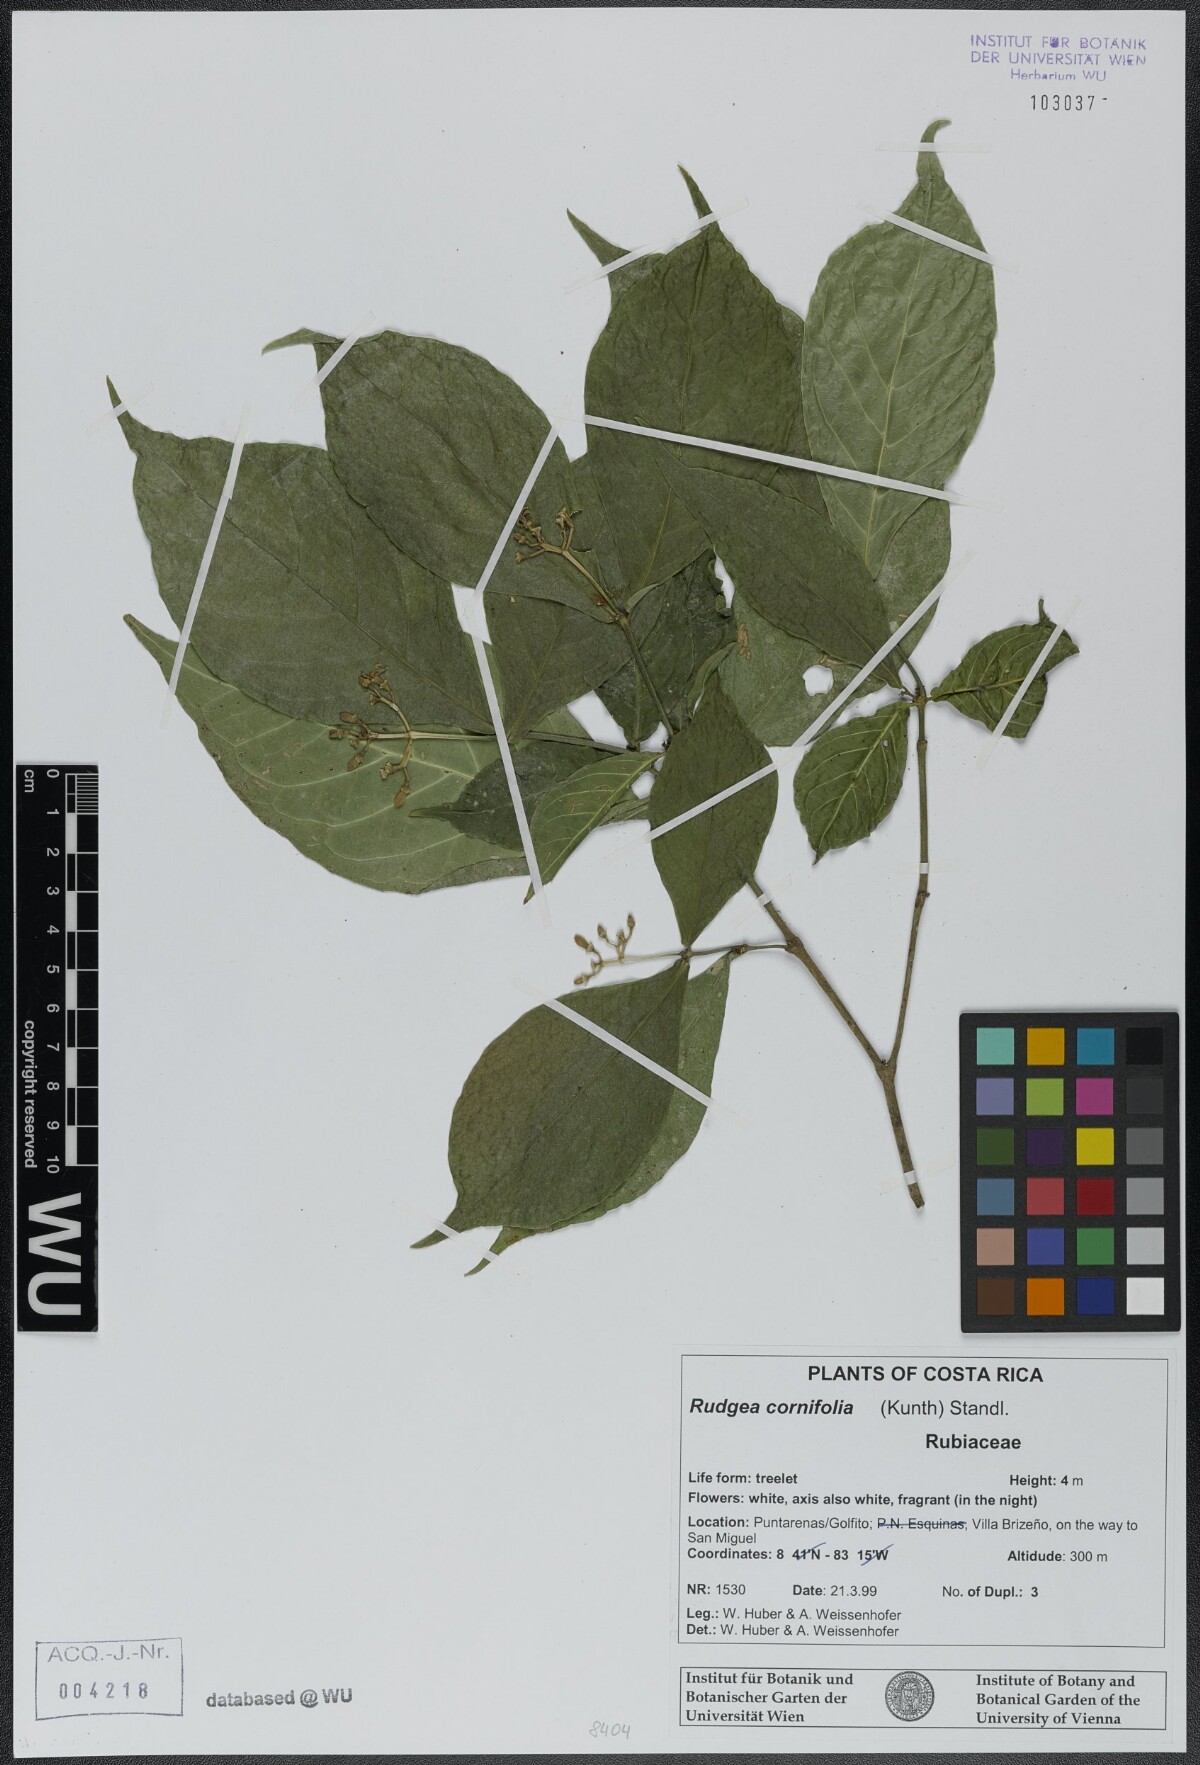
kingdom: Plantae
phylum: Tracheophyta
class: Magnoliopsida
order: Gentianales
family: Rubiaceae
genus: Rudgea
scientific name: Rudgea cornifolia
